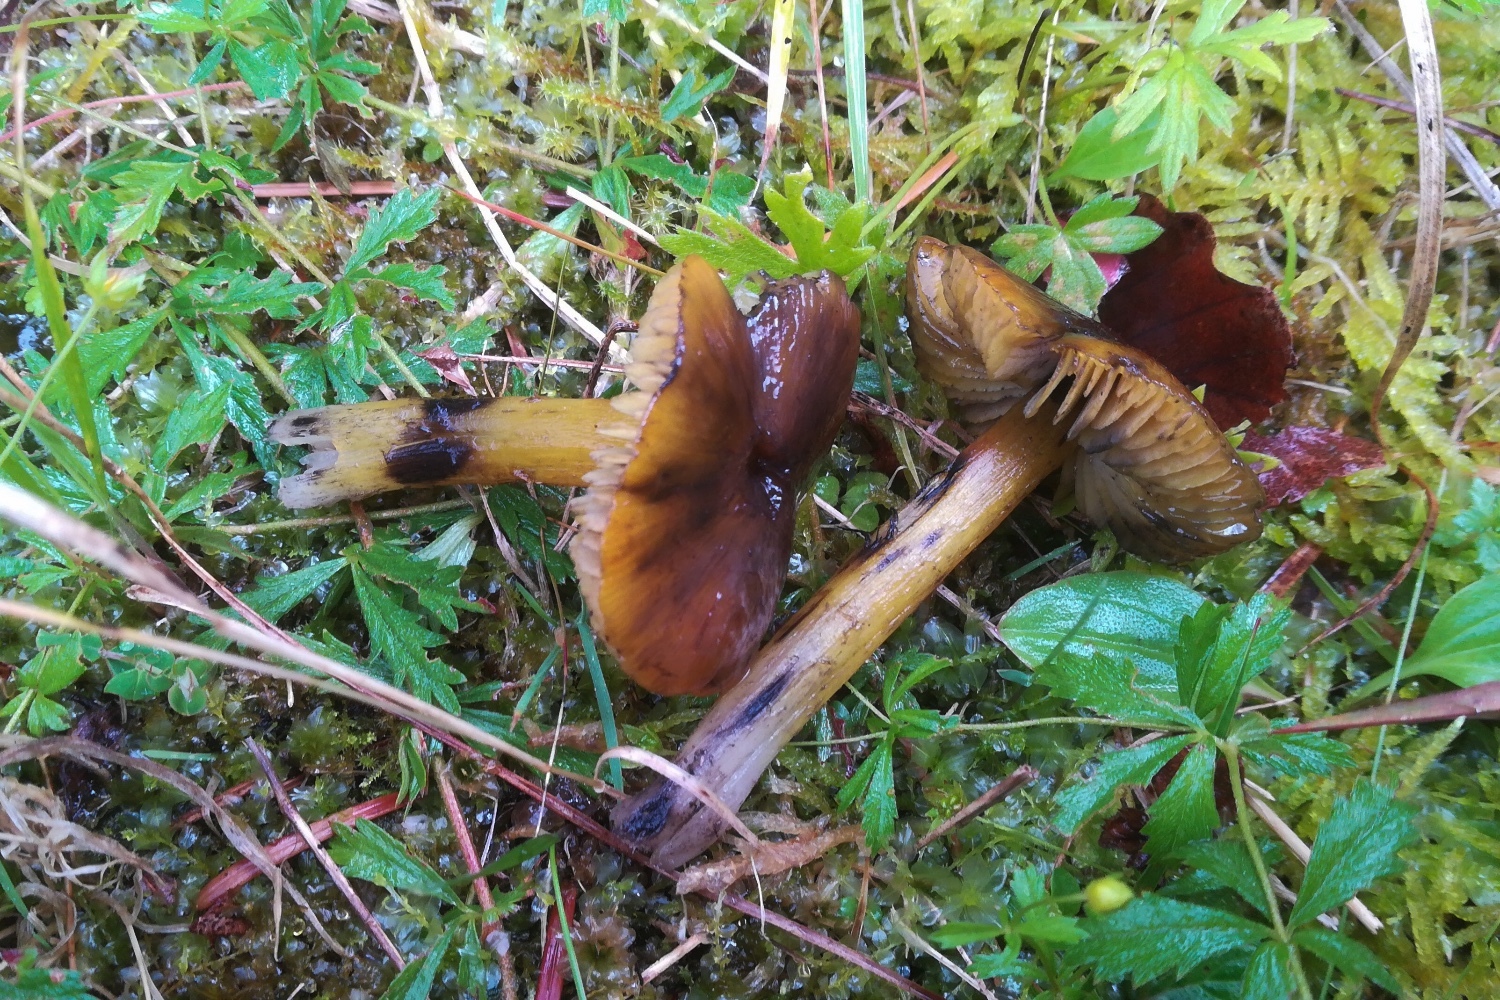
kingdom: Fungi
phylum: Basidiomycota
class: Agaricomycetes
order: Agaricales
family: Hygrophoraceae
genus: Hygrocybe
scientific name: Hygrocybe conica
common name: kegle-vokshat
